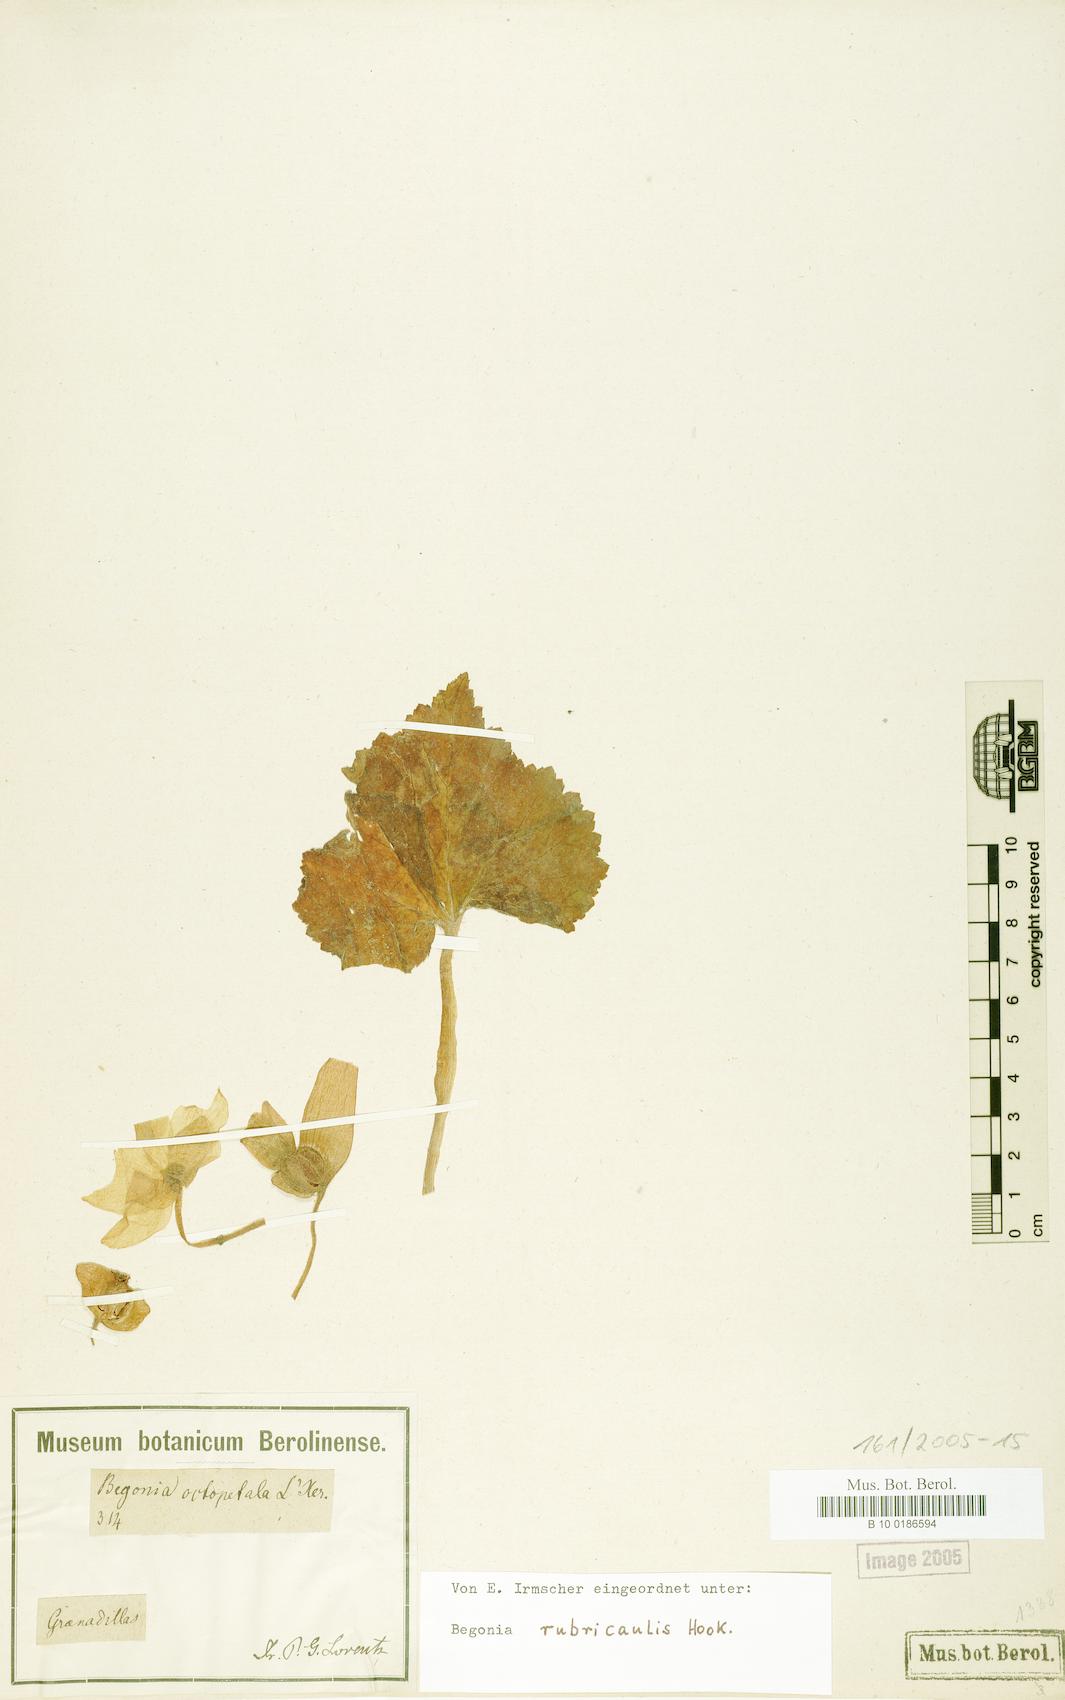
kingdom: Plantae
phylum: Tracheophyta
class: Magnoliopsida
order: Cucurbitales
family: Begoniaceae
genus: Begonia
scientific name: Begonia rubricaulis
